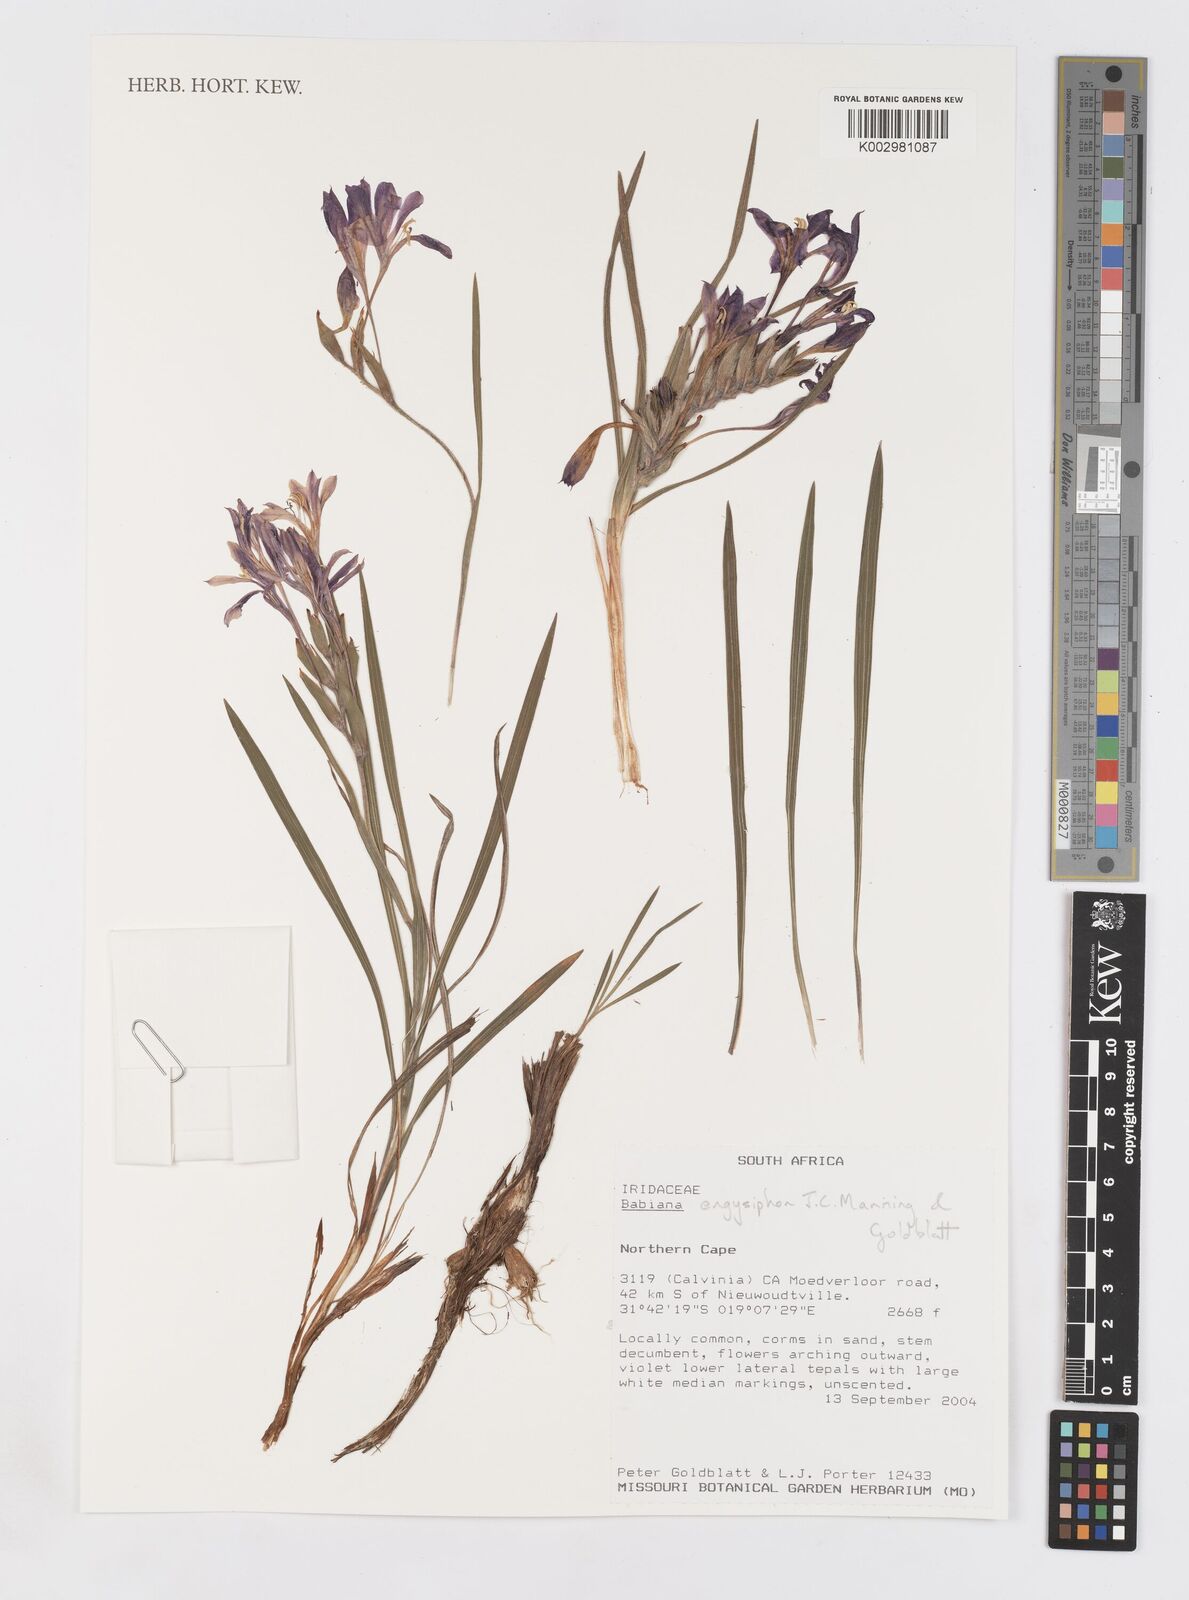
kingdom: Plantae
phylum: Tracheophyta
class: Liliopsida
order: Asparagales
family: Iridaceae
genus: Babiana
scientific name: Babiana engysiphon
